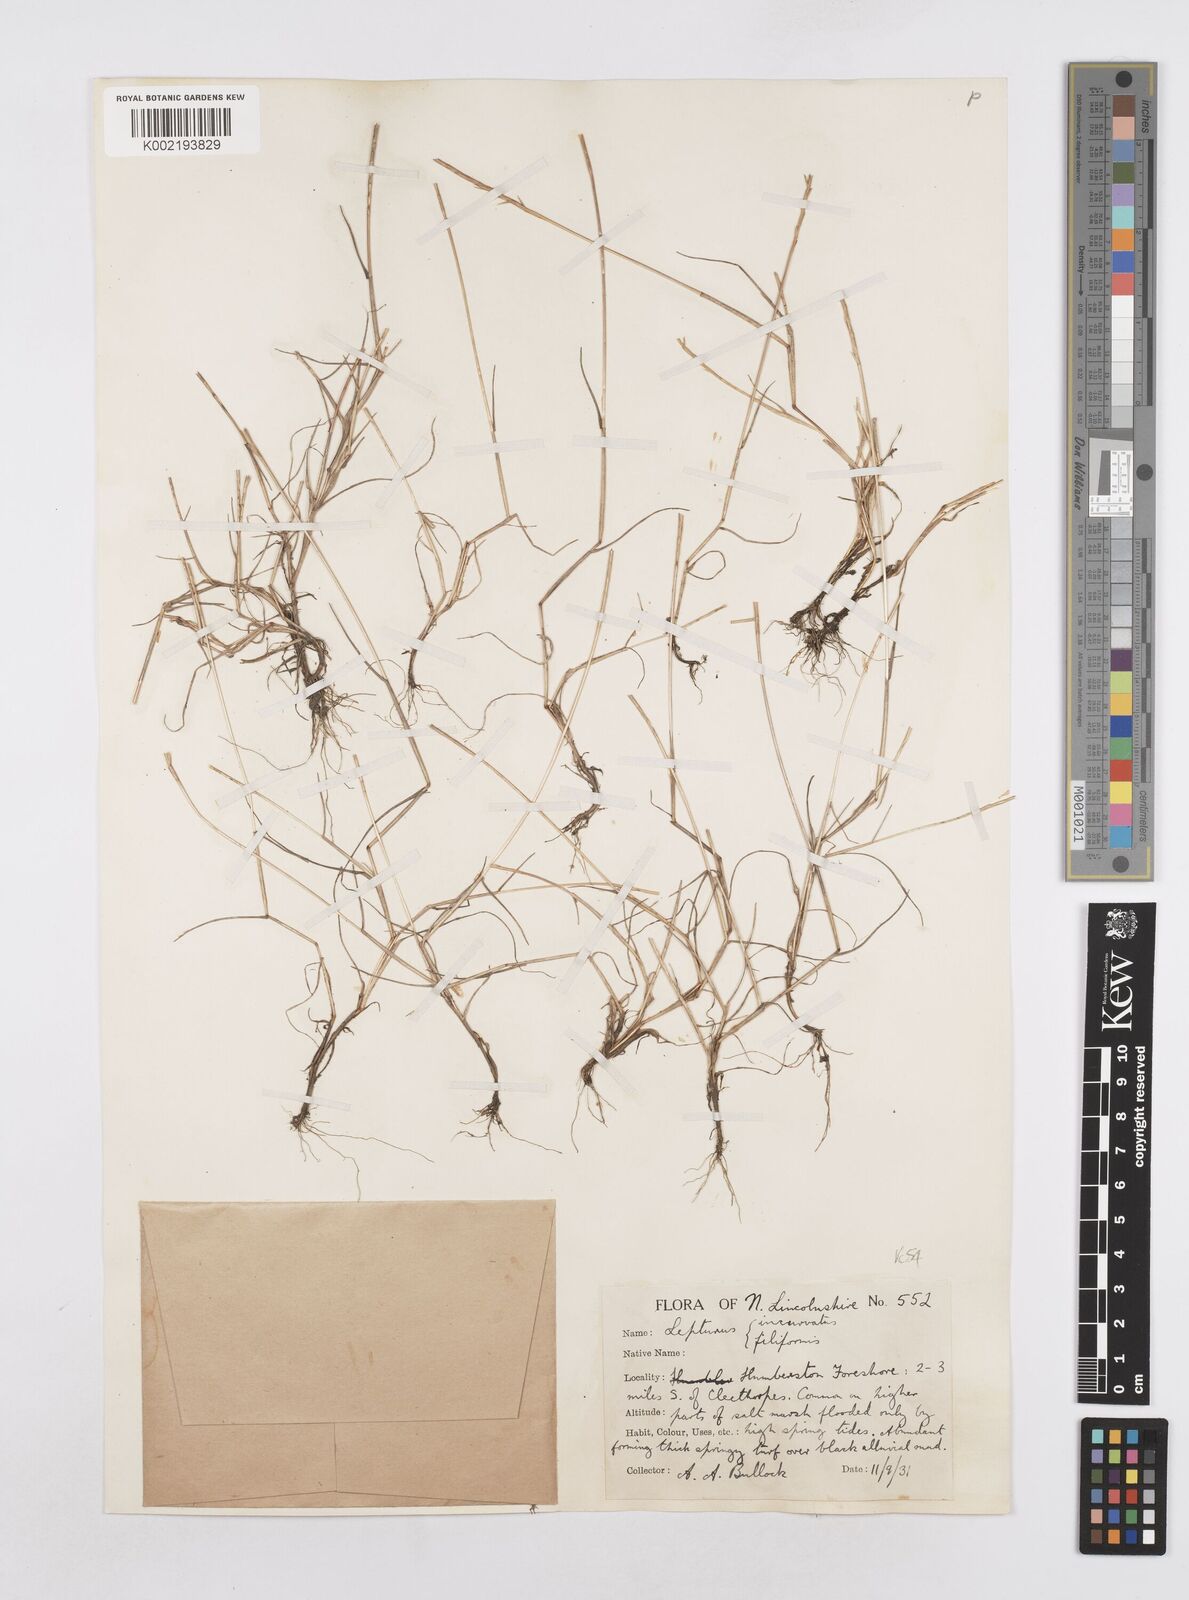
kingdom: Plantae
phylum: Tracheophyta
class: Liliopsida
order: Poales
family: Poaceae
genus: Parapholis
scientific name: Parapholis strigosa
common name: Hard-grass
